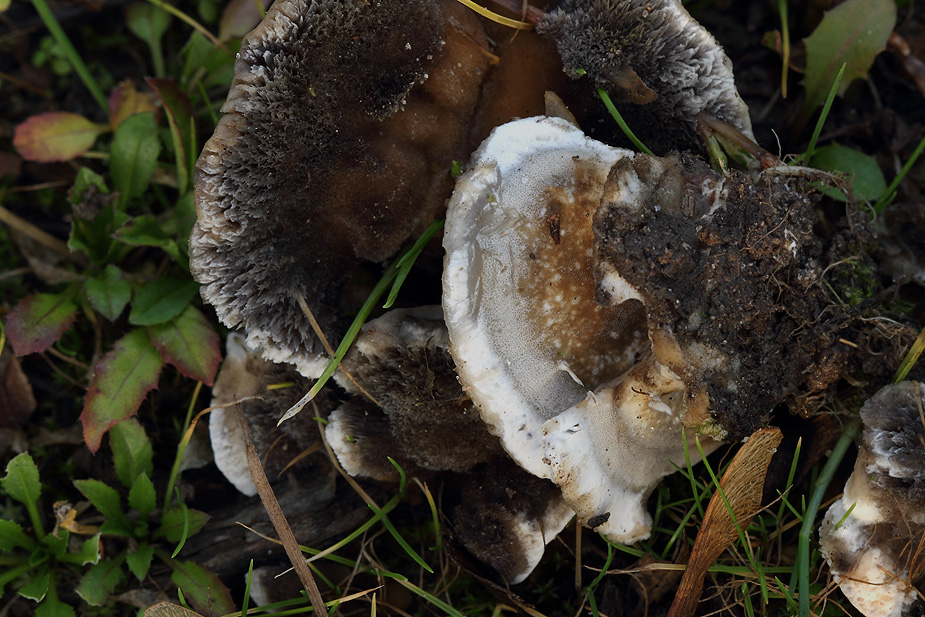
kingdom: Fungi
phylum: Basidiomycota
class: Agaricomycetes
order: Polyporales
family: Phanerochaetaceae
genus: Bjerkandera
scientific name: Bjerkandera adusta
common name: sveden sodporesvamp
